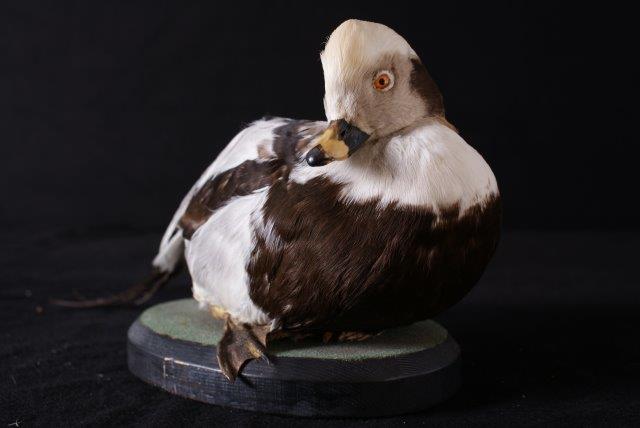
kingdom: Animalia
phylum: Chordata
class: Aves
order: Anseriformes
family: Anatidae
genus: Clangula
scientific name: Clangula hyemalis
